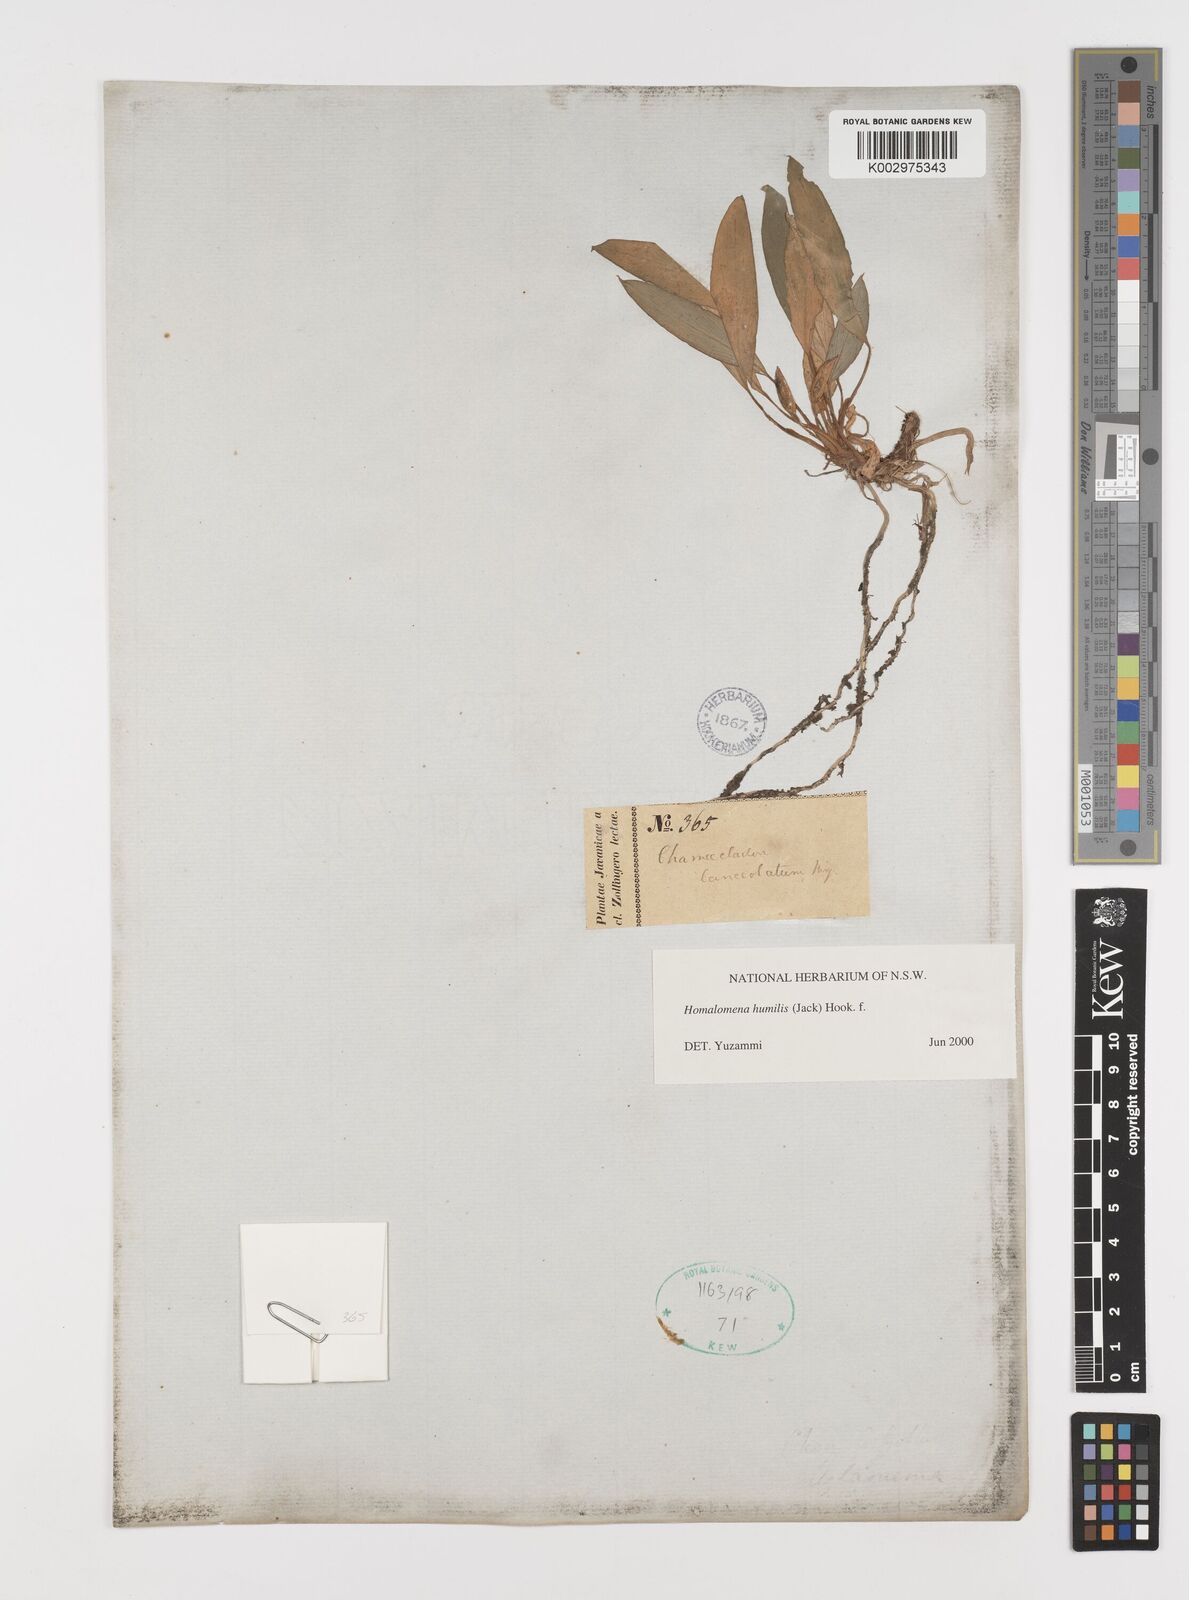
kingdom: Plantae
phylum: Tracheophyta
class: Liliopsida
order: Alismatales
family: Araceae
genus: Homalomena
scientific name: Homalomena humilis
